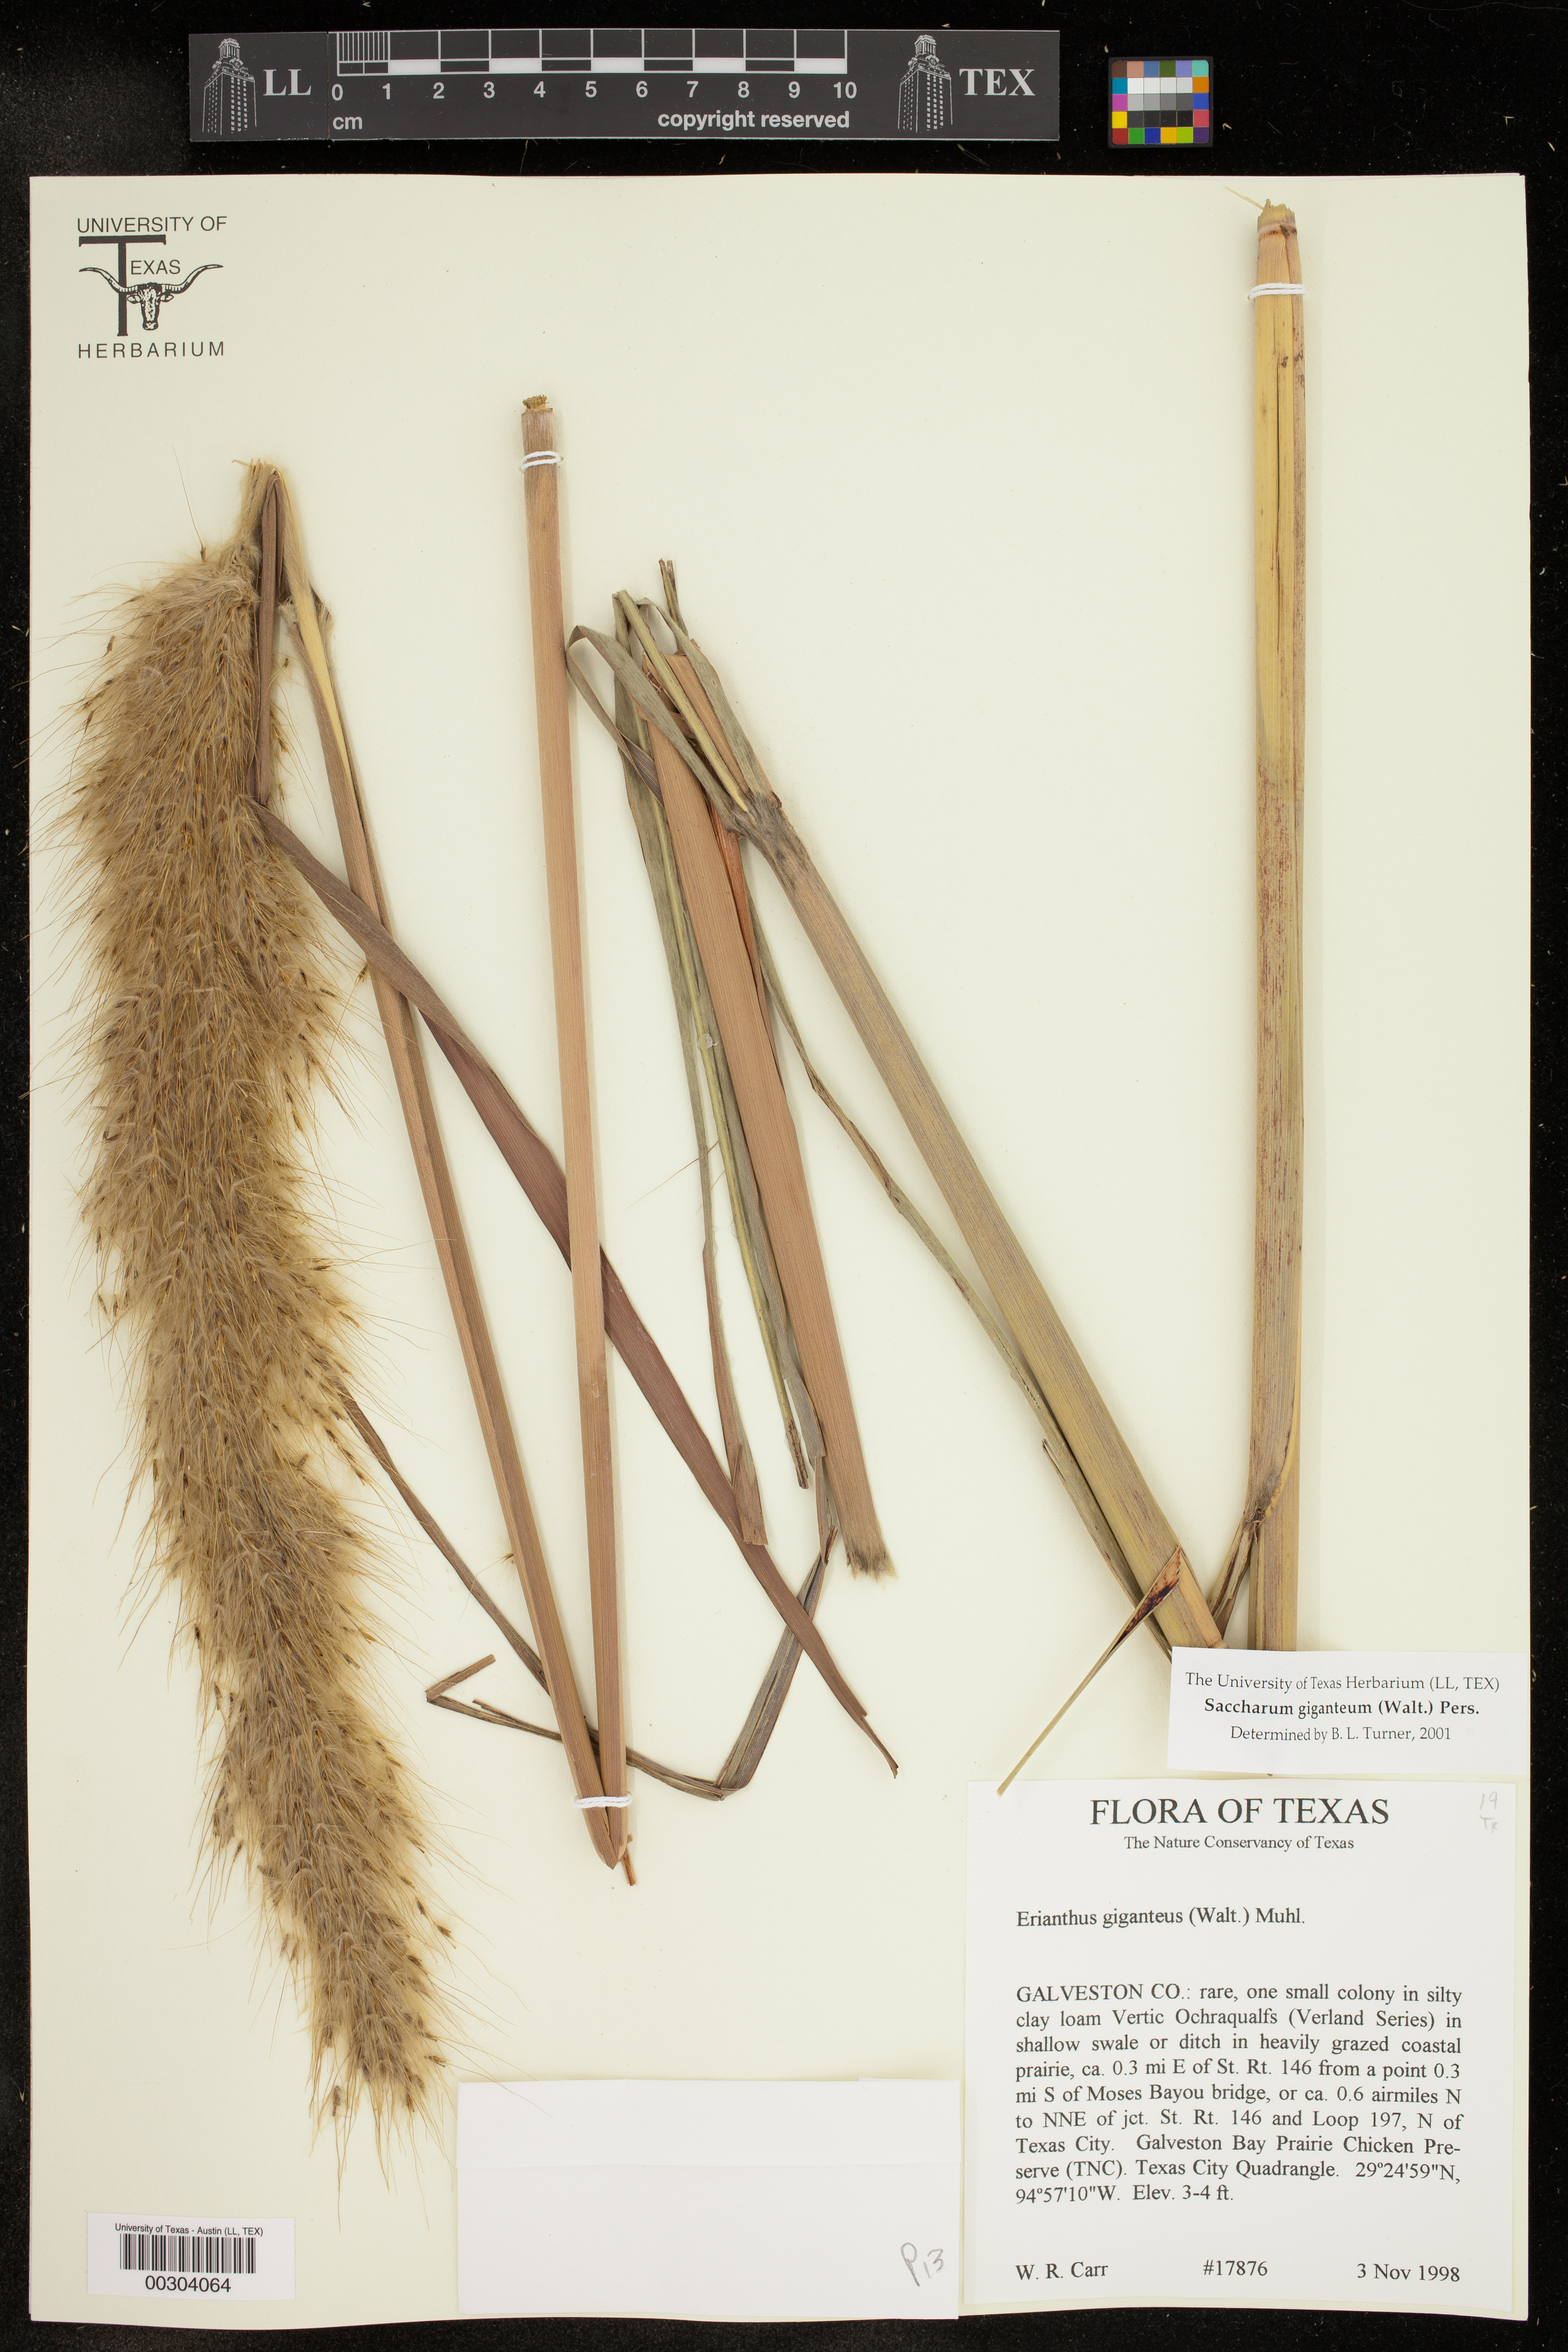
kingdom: Plantae
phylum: Tracheophyta
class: Liliopsida
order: Poales
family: Poaceae
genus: Saccharum
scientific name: Saccharum giganteum
